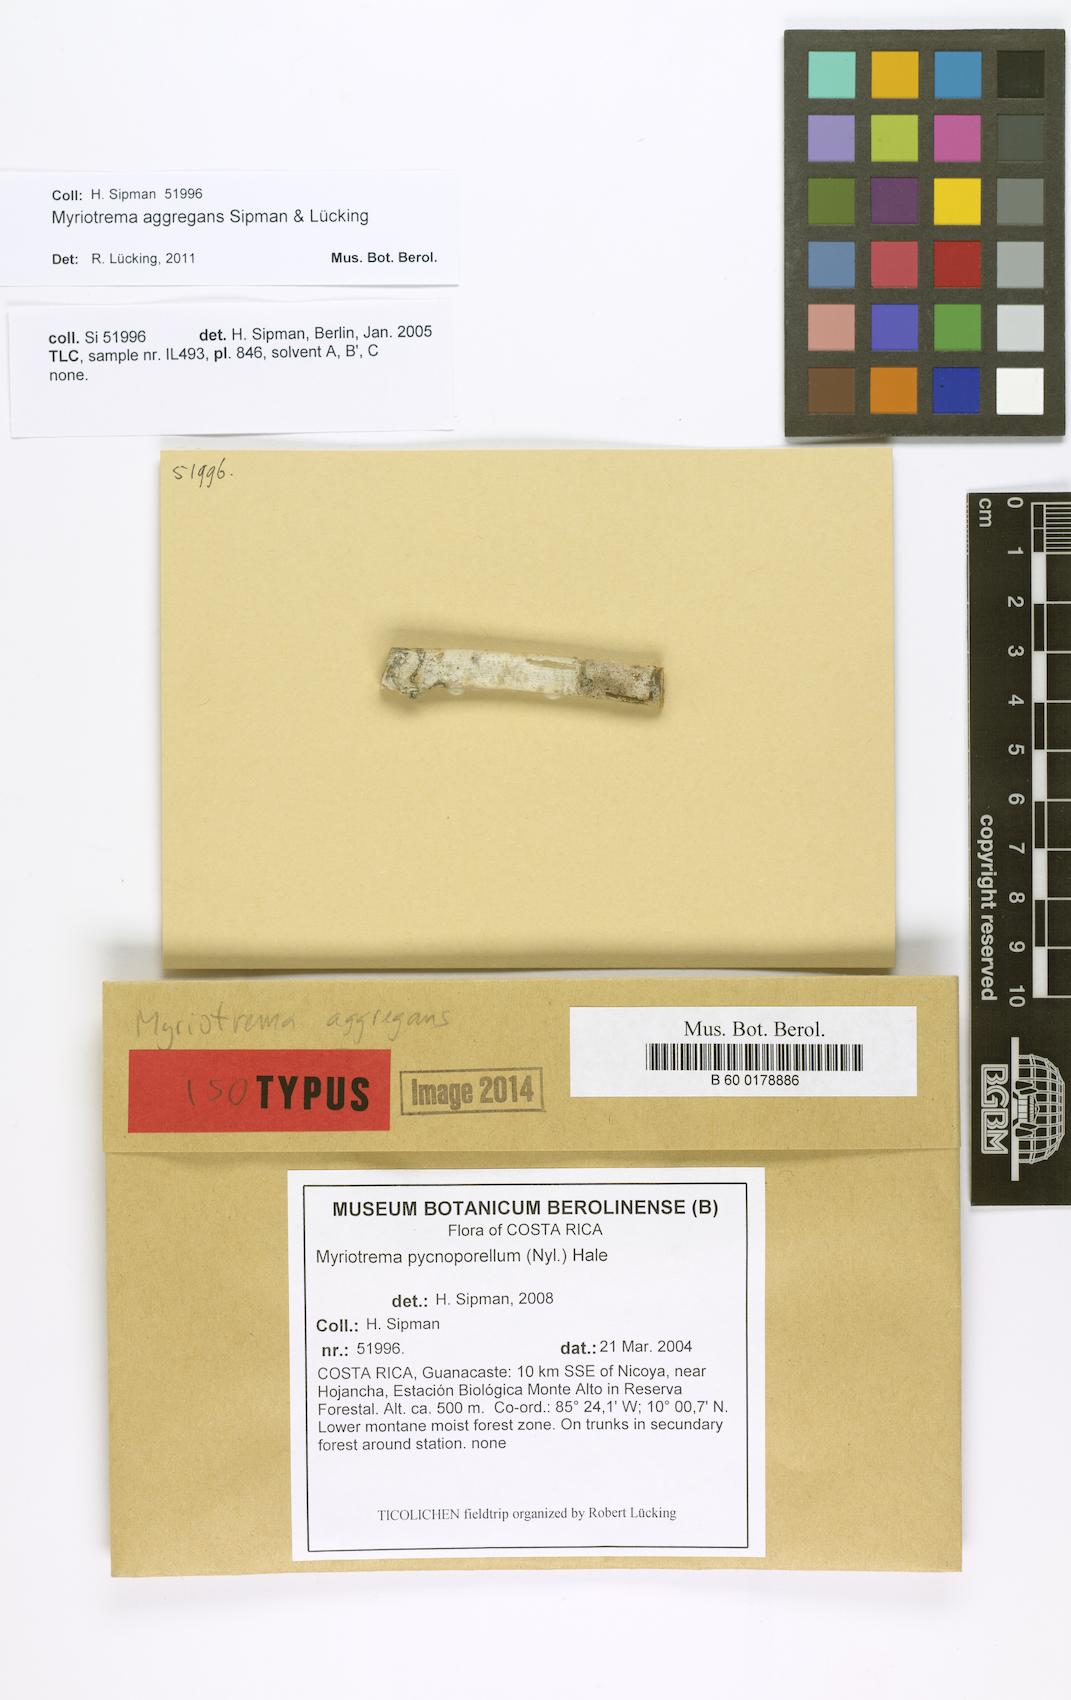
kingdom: Fungi
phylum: Ascomycota
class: Lecanoromycetes
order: Ostropales
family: Graphidaceae
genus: Myriotrema
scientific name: Myriotrema aggregans
